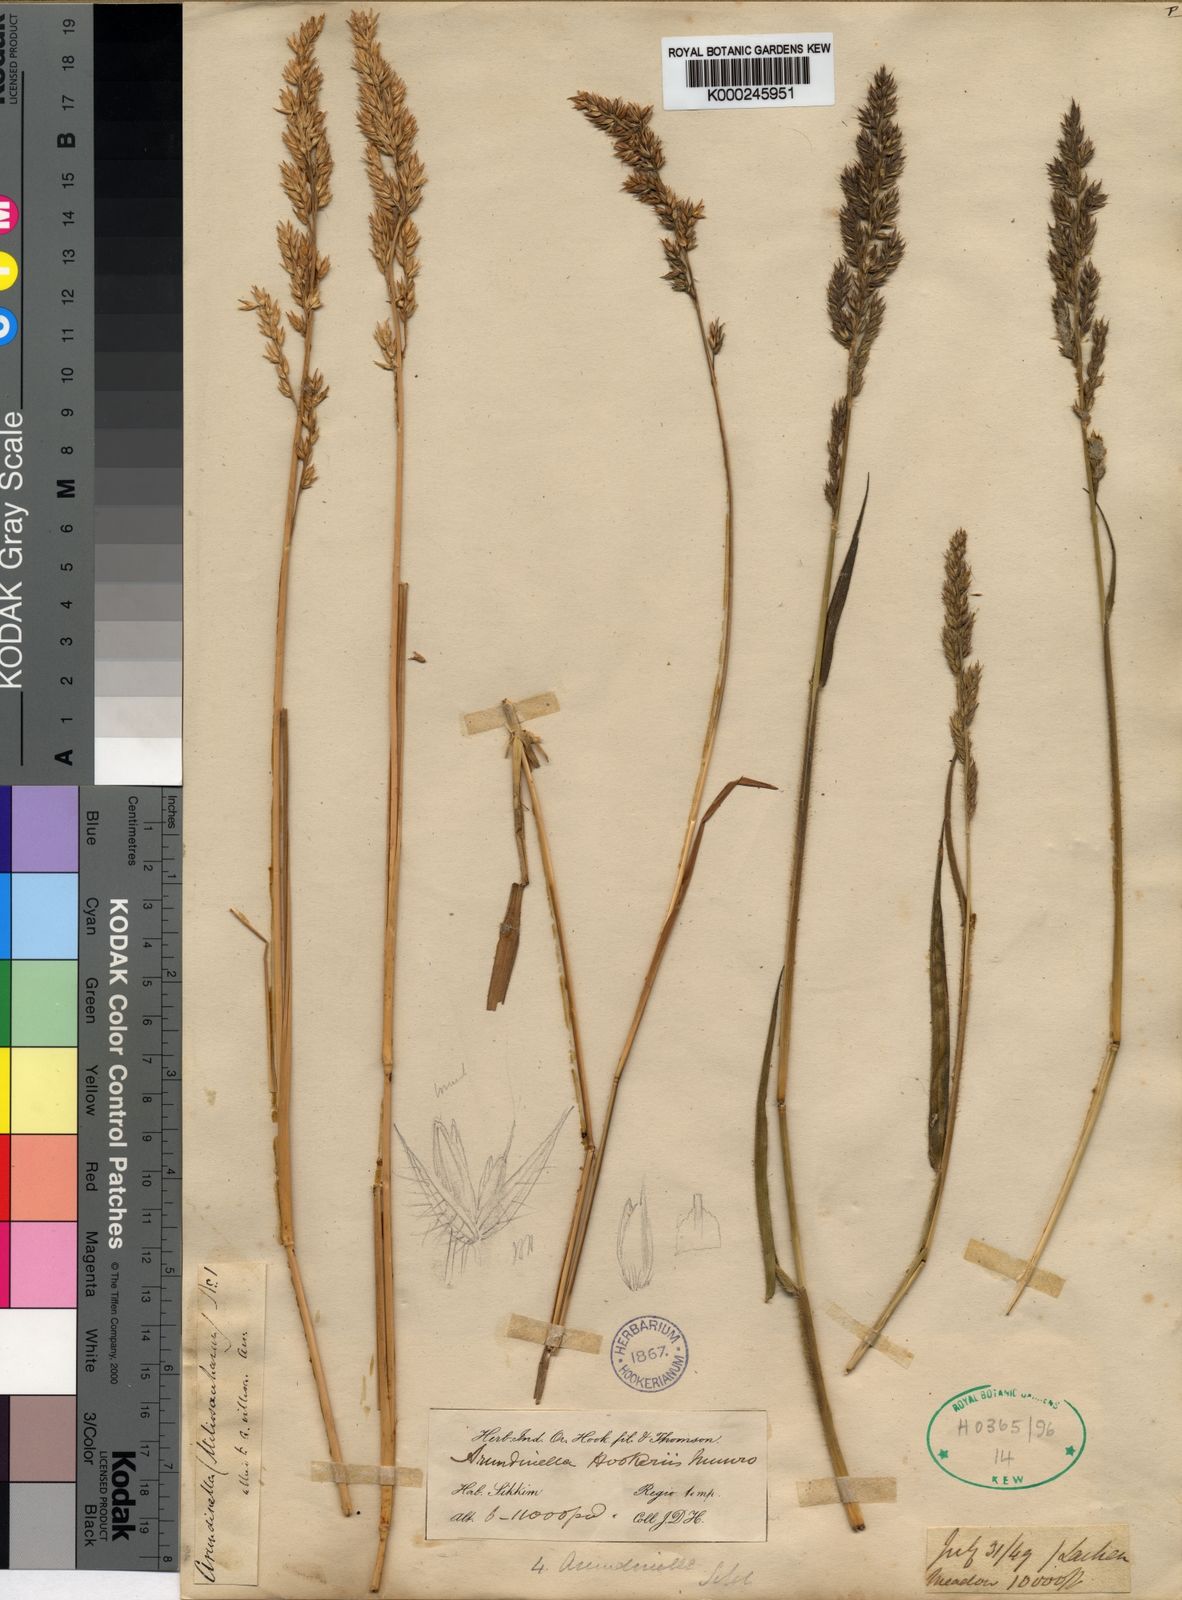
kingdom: Plantae
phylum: Tracheophyta
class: Liliopsida
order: Poales
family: Poaceae
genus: Arundinella
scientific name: Arundinella hookeri
